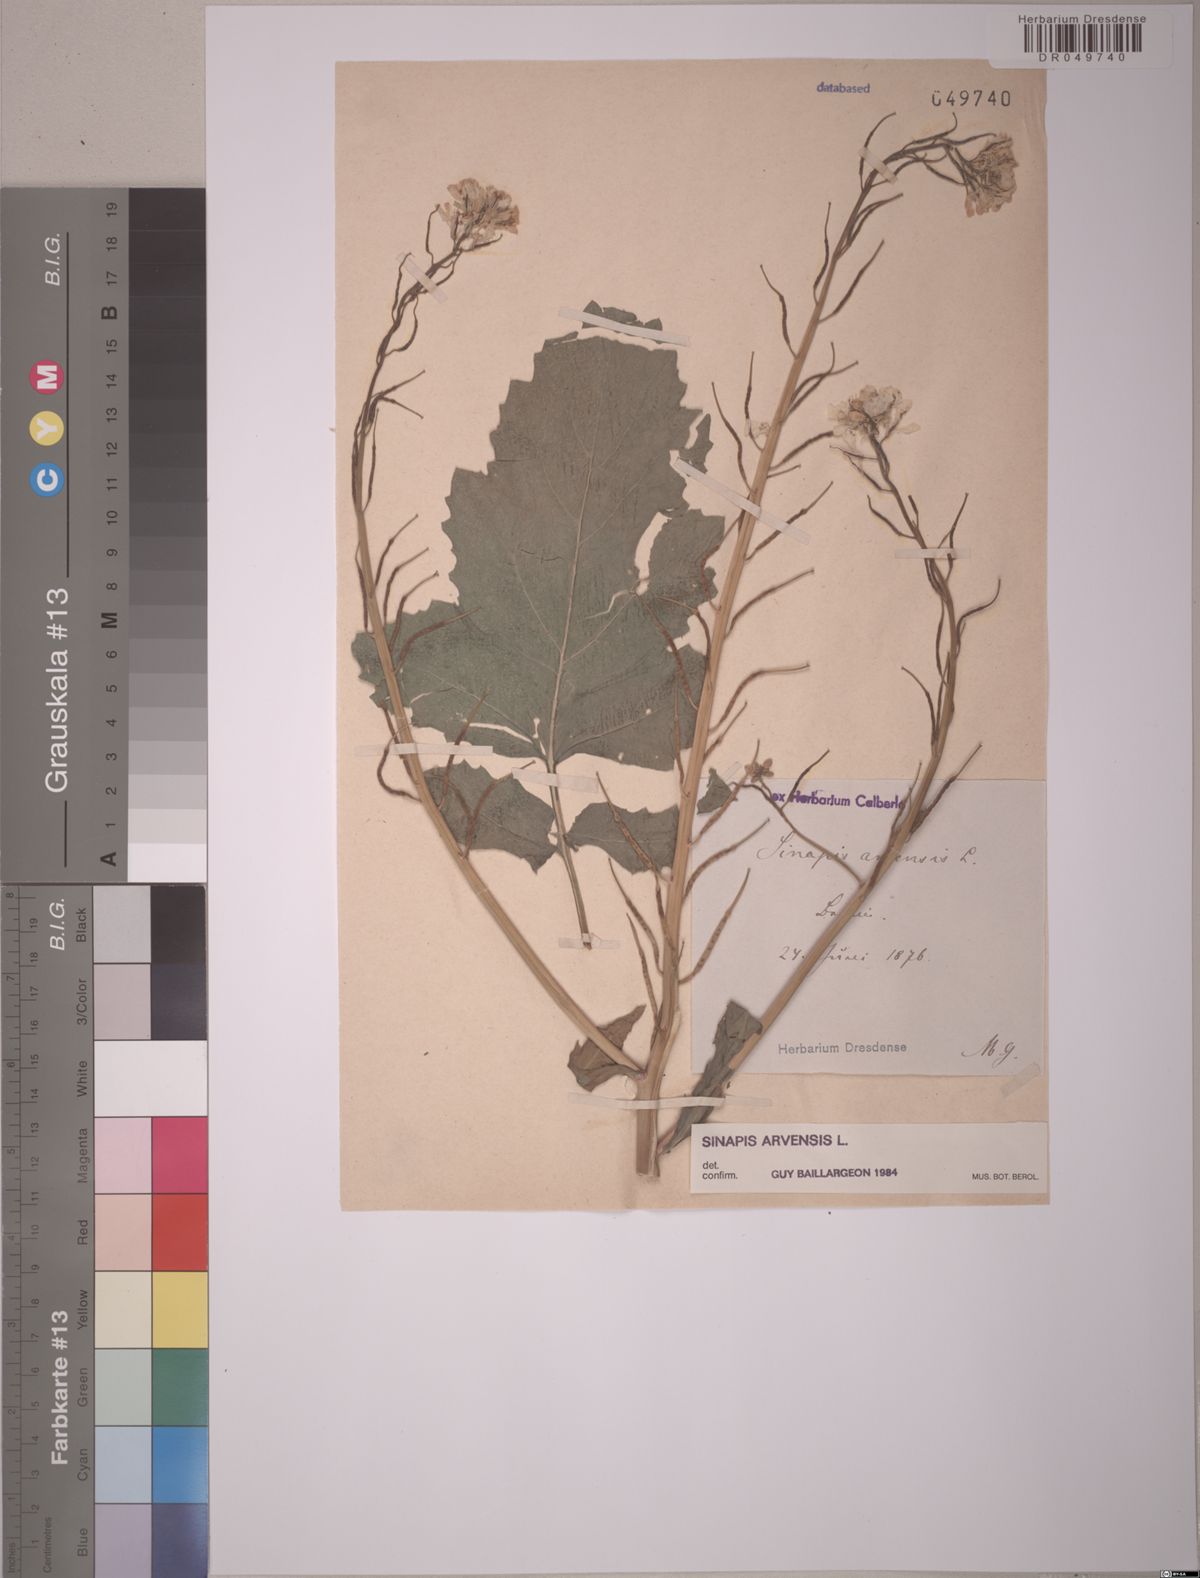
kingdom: Plantae
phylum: Tracheophyta
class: Magnoliopsida
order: Brassicales
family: Brassicaceae
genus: Sinapis
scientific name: Sinapis arvensis
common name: Charlock
